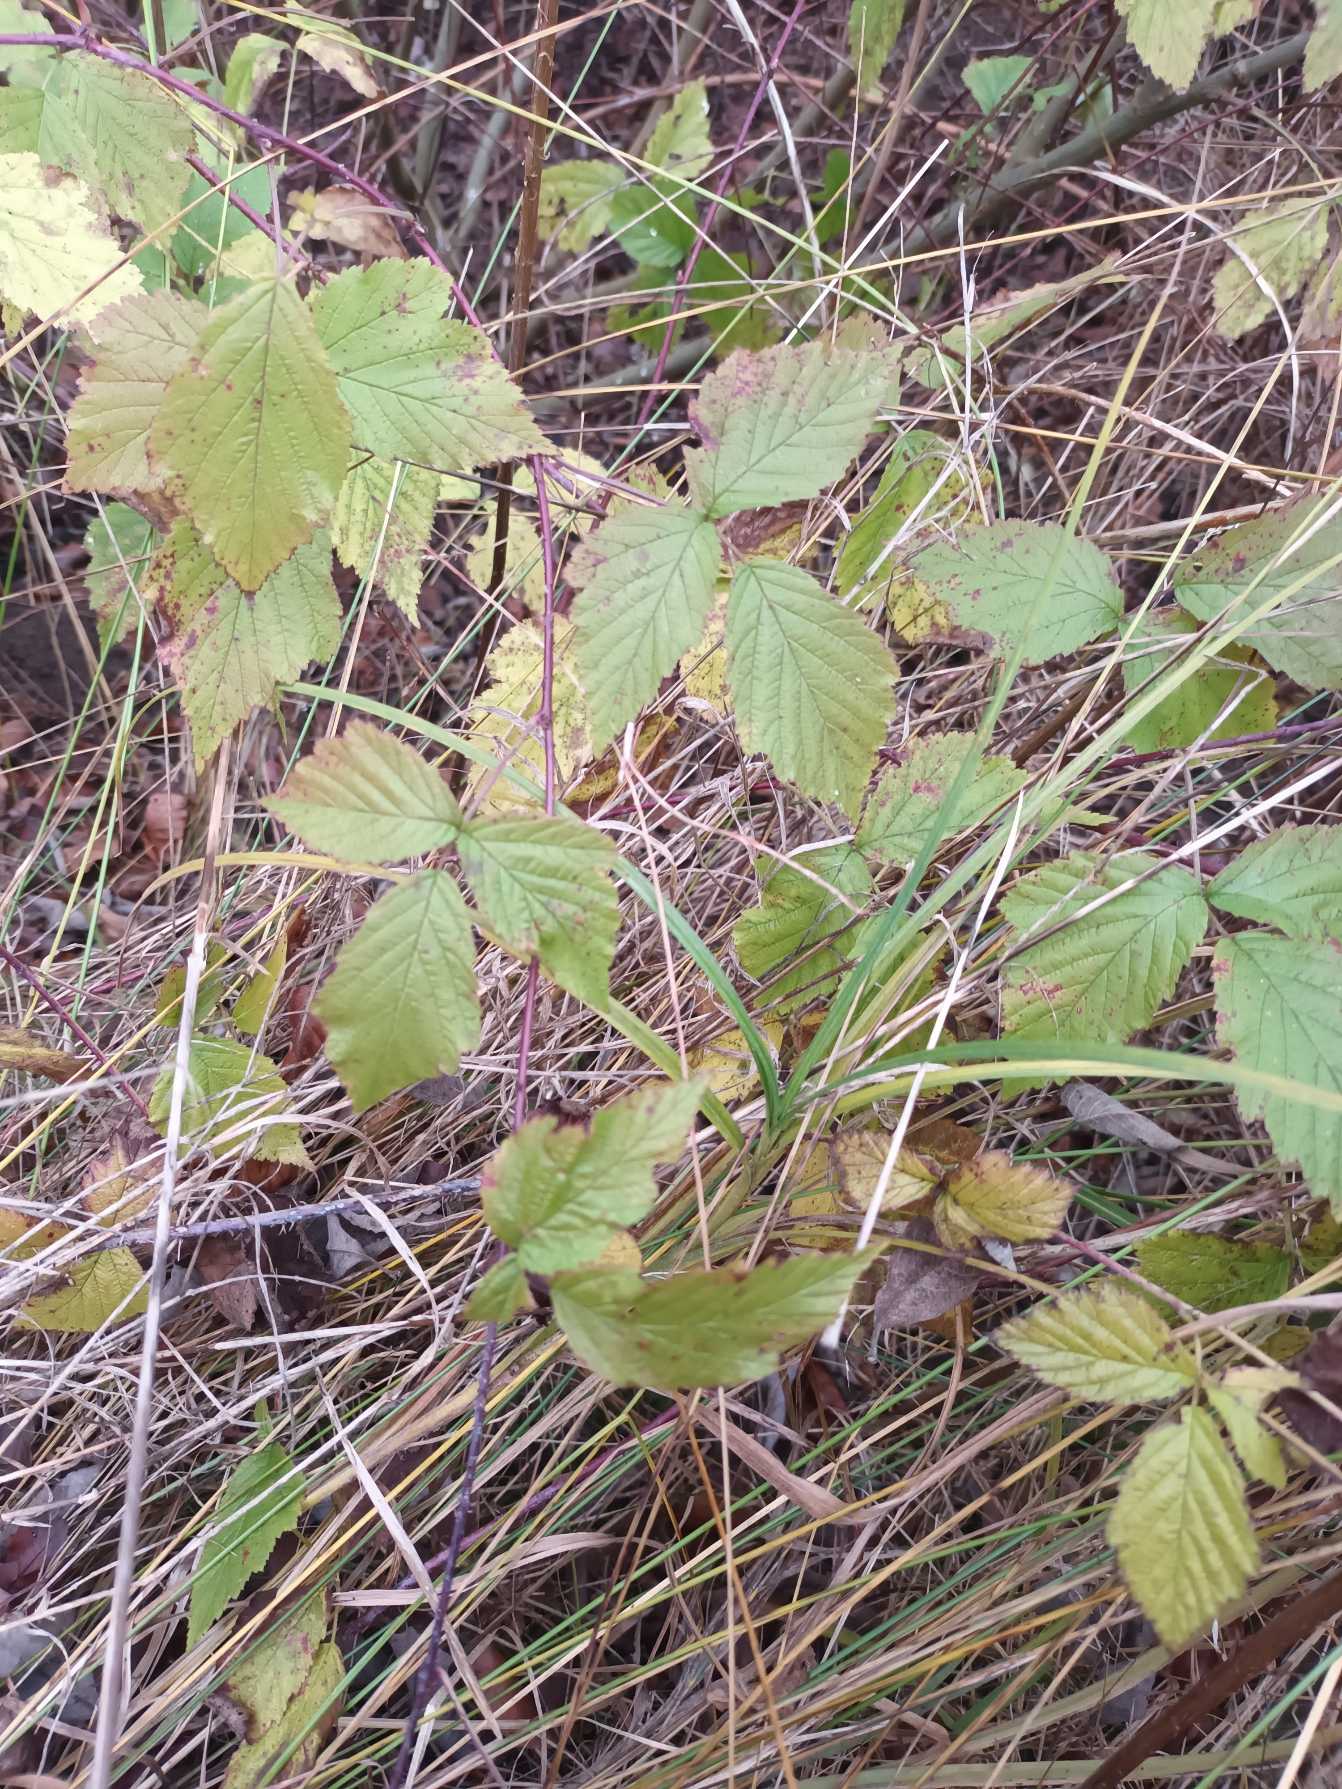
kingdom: Plantae
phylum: Tracheophyta
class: Magnoliopsida
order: Rosales
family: Rosaceae
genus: Rubus
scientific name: Rubus caesius
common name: Korbær
